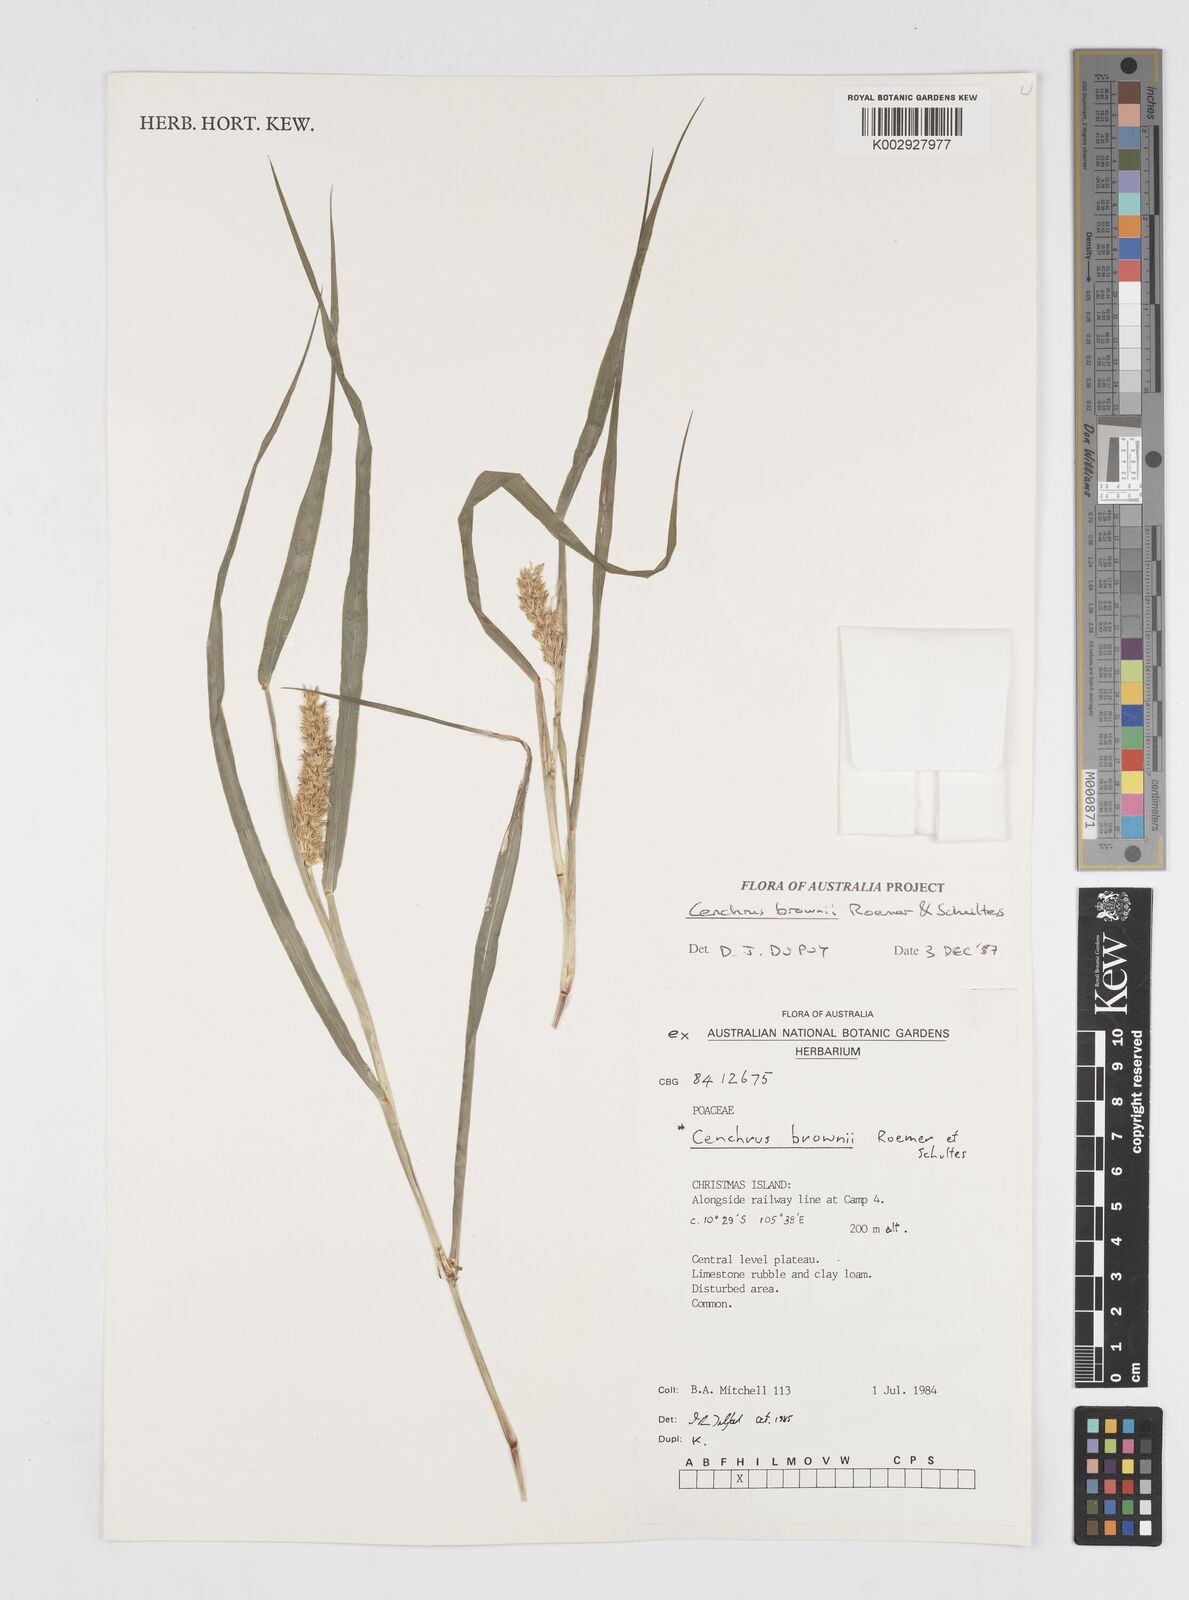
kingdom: Plantae
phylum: Tracheophyta
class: Liliopsida
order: Poales
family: Poaceae
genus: Cenchrus
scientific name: Cenchrus brownii
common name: Slim-bristle sandbur
